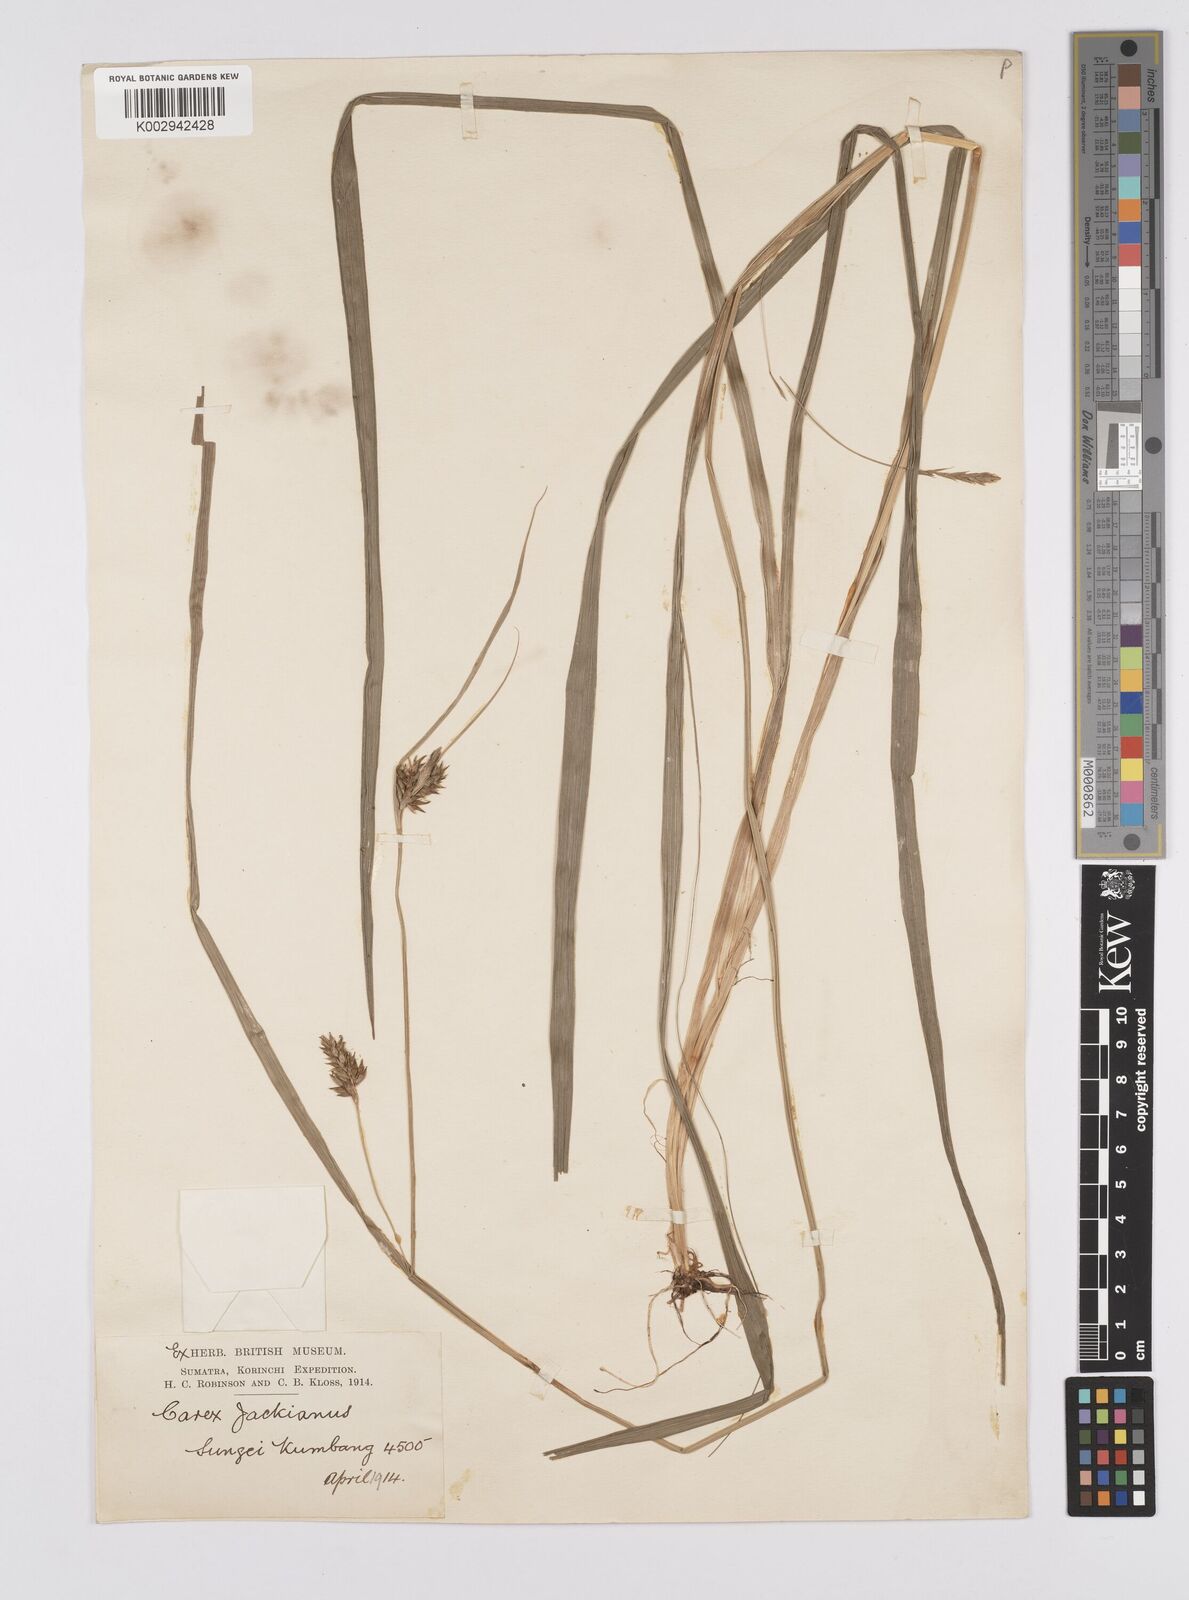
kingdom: Plantae
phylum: Tracheophyta
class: Liliopsida
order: Poales
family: Cyperaceae
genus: Carex
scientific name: Carex parciflora
